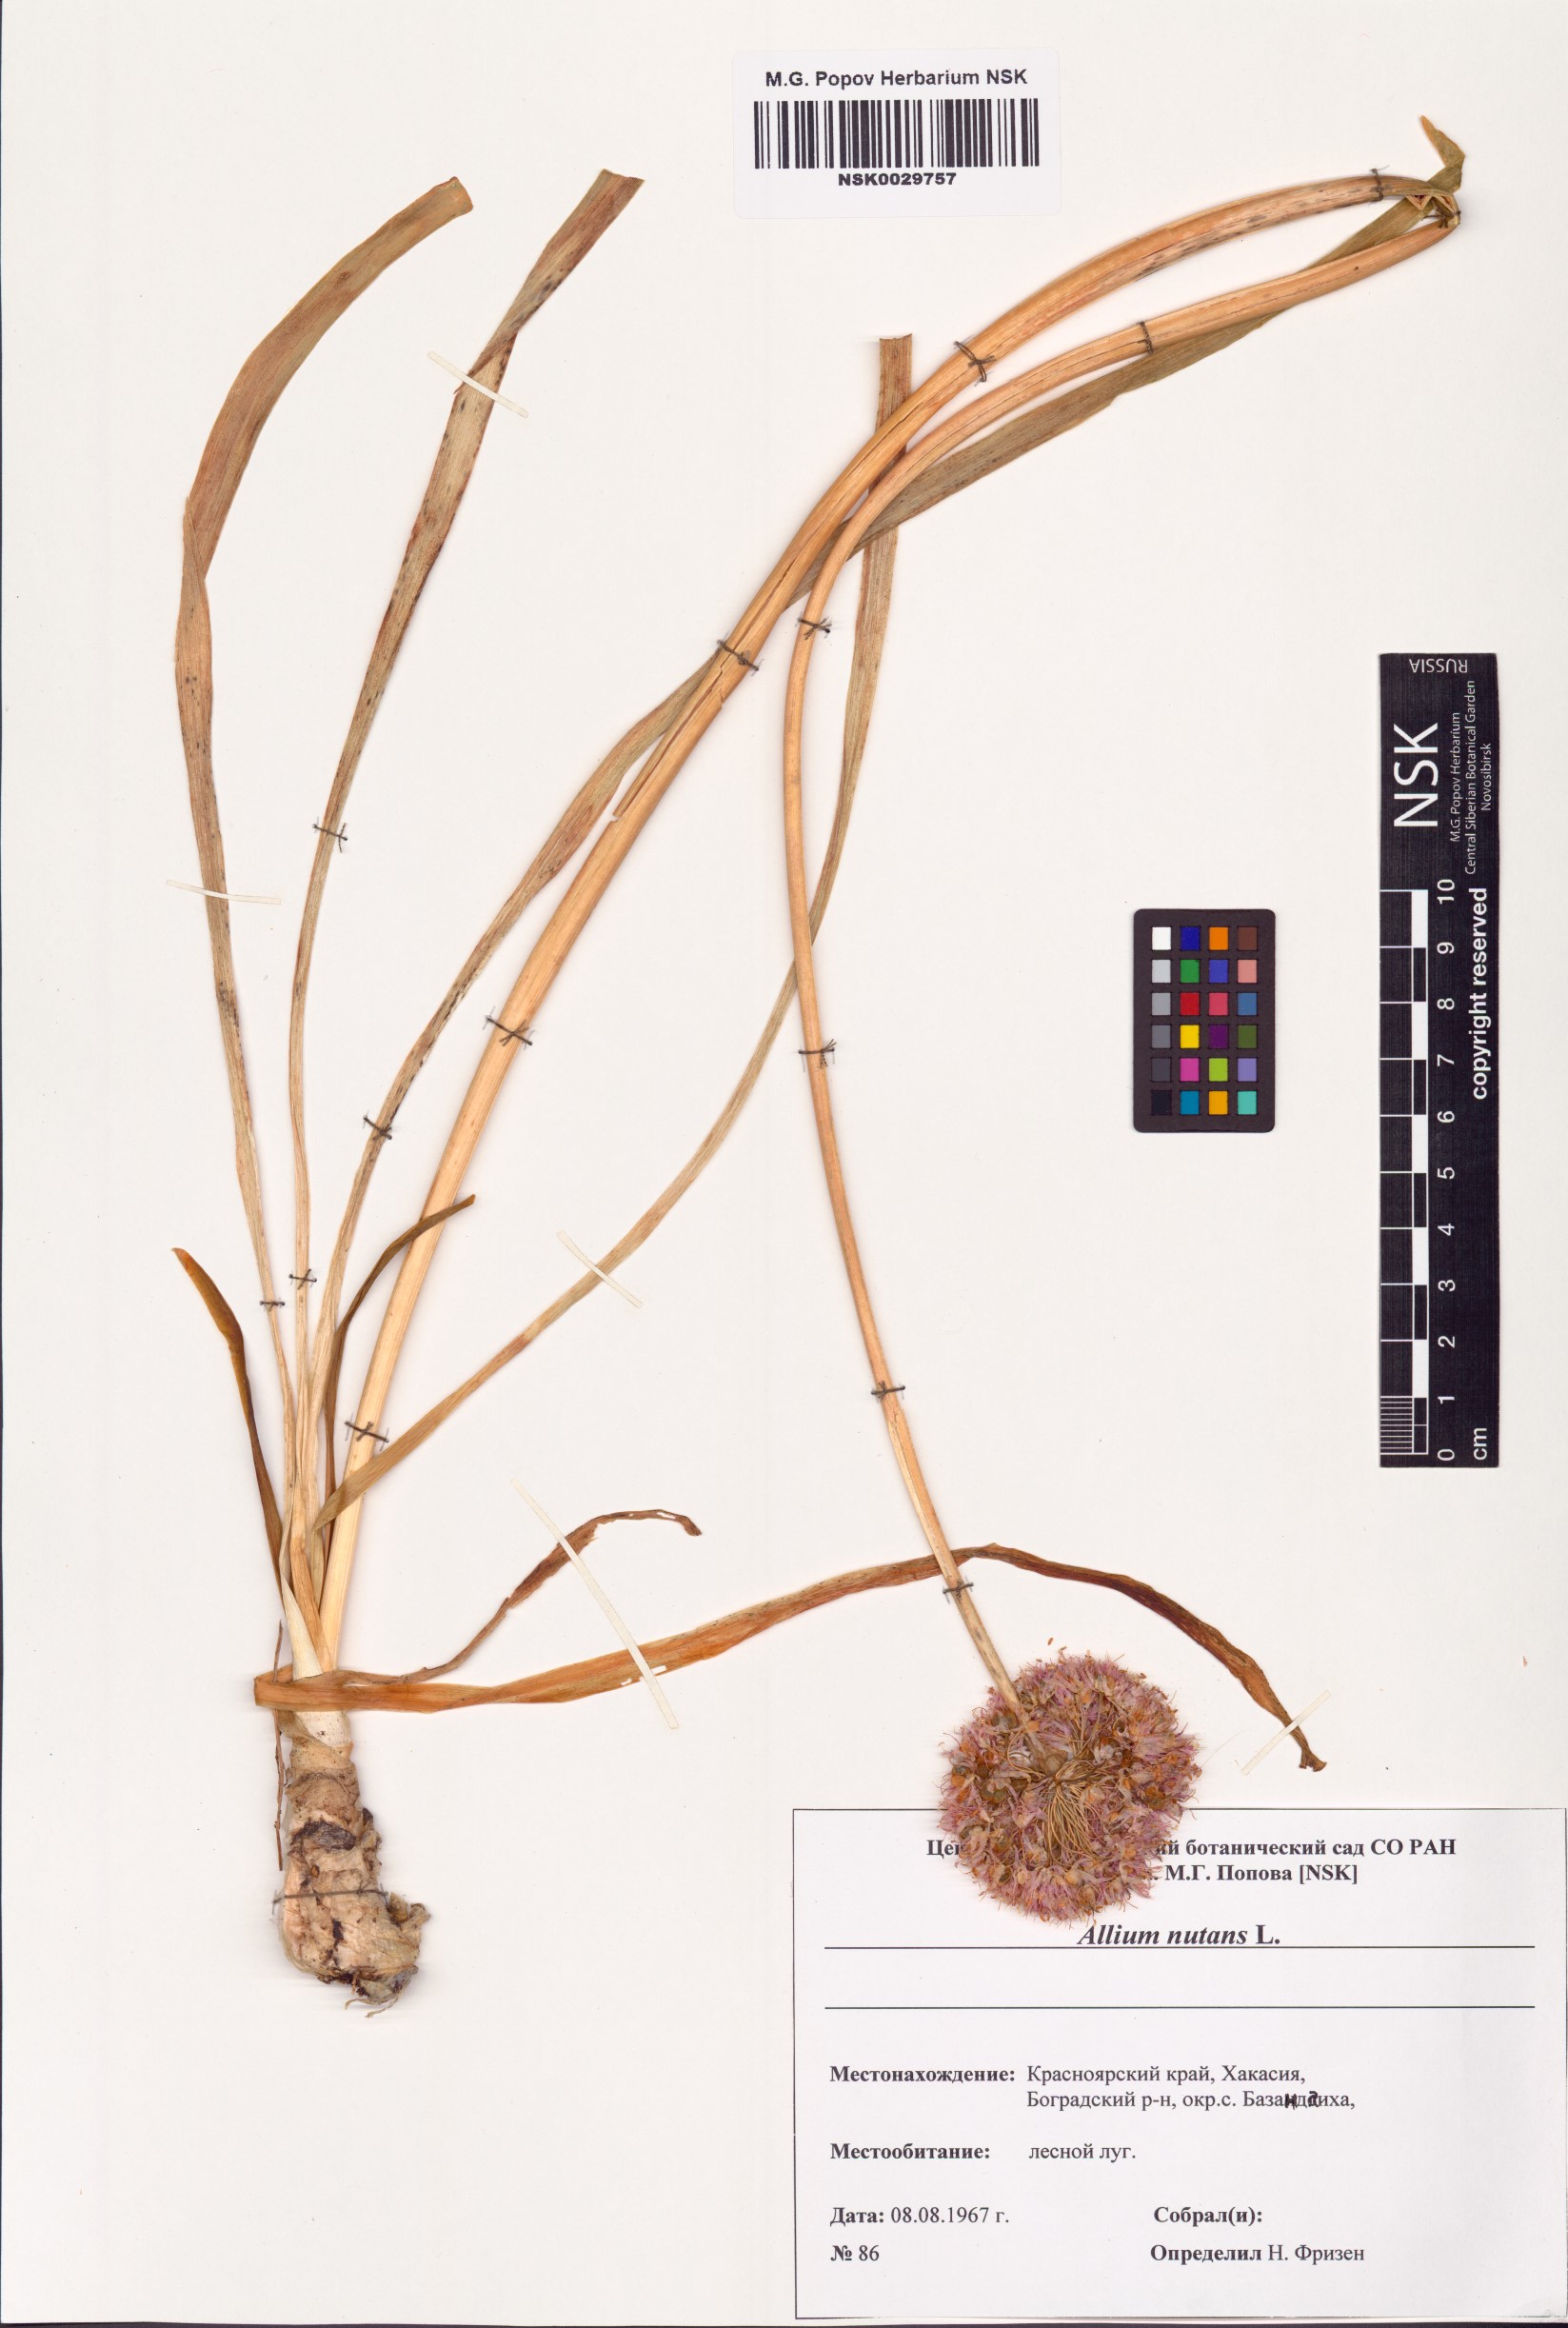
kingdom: Plantae
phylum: Tracheophyta
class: Liliopsida
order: Asparagales
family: Amaryllidaceae
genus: Allium
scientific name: Allium nutans
